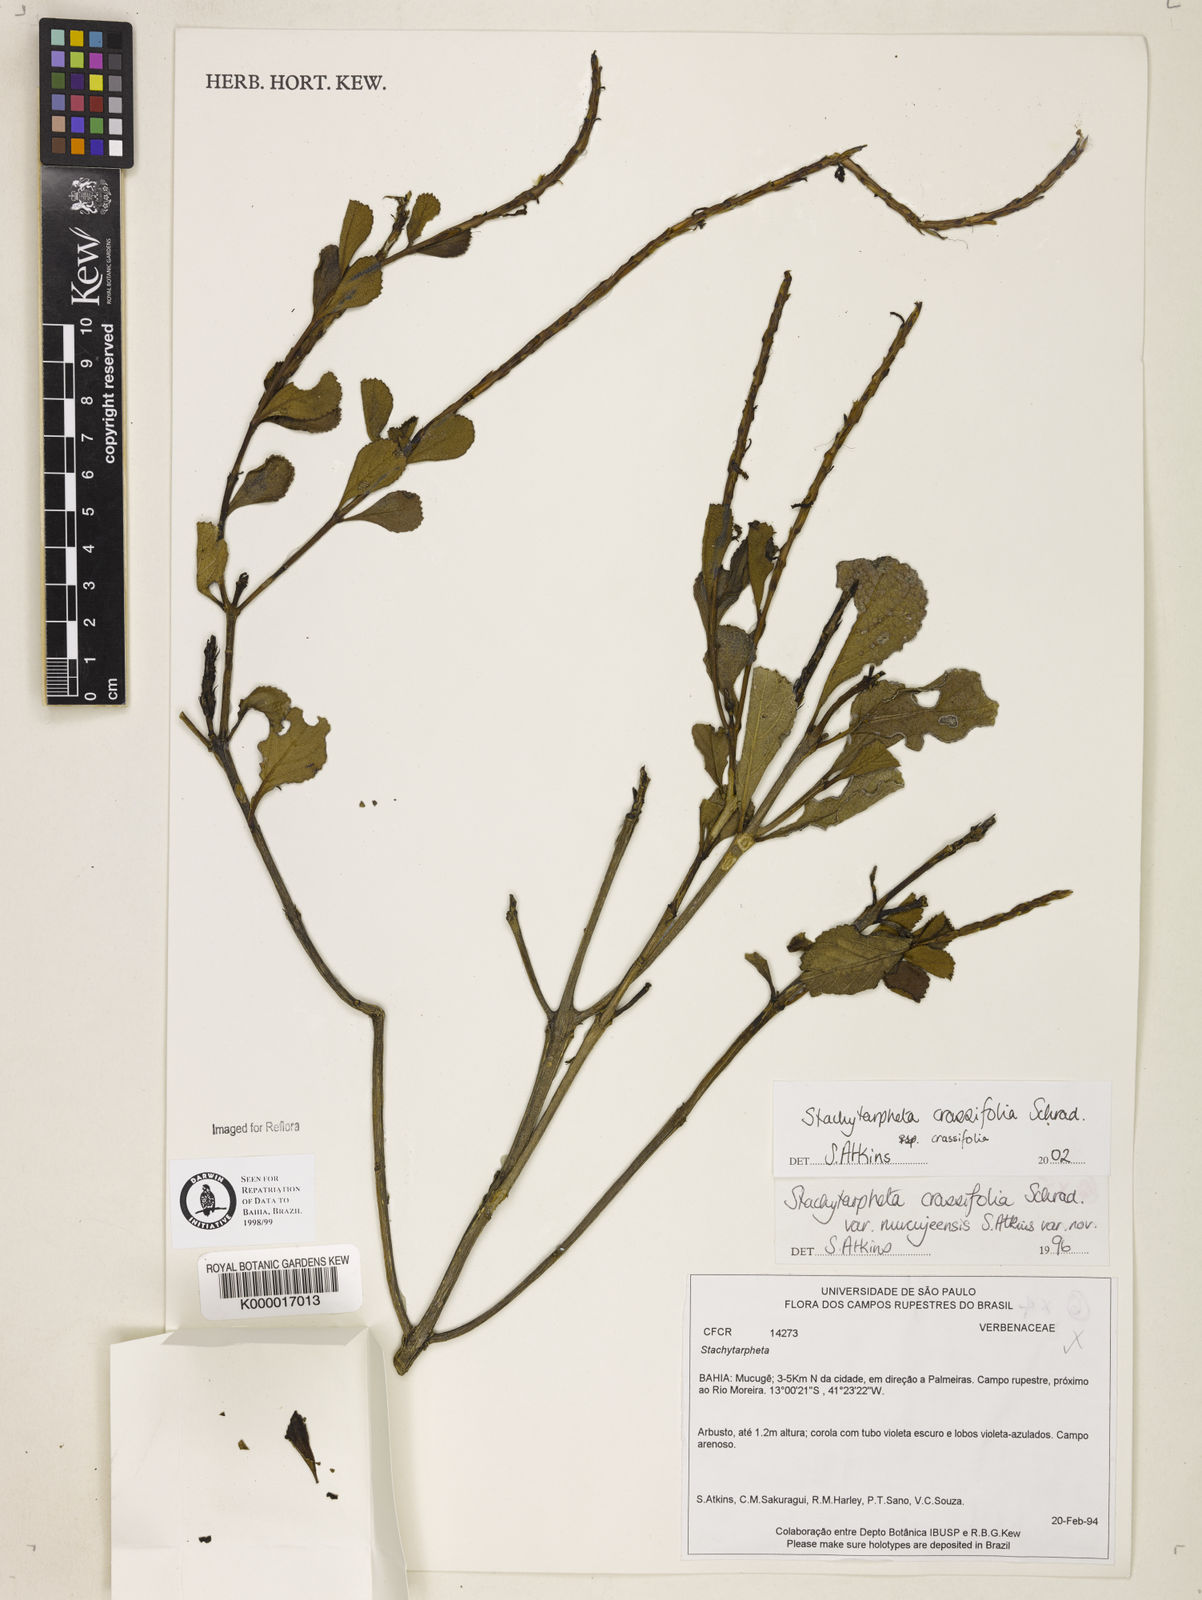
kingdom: Plantae
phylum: Tracheophyta
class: Magnoliopsida
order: Lamiales
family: Verbenaceae
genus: Stachytarpheta
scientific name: Stachytarpheta crassifolia
